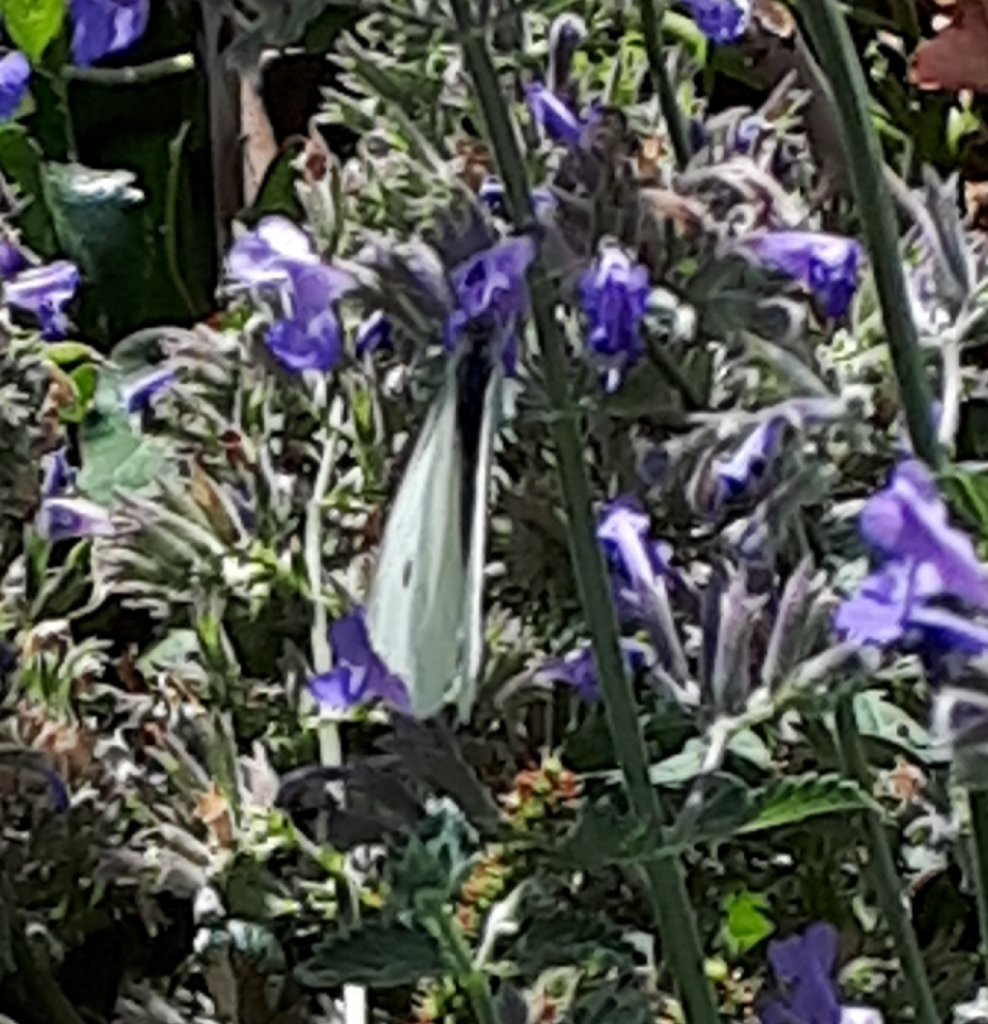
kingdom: Animalia
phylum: Arthropoda
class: Insecta
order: Lepidoptera
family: Pieridae
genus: Pieris
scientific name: Pieris rapae
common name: Cabbage White
